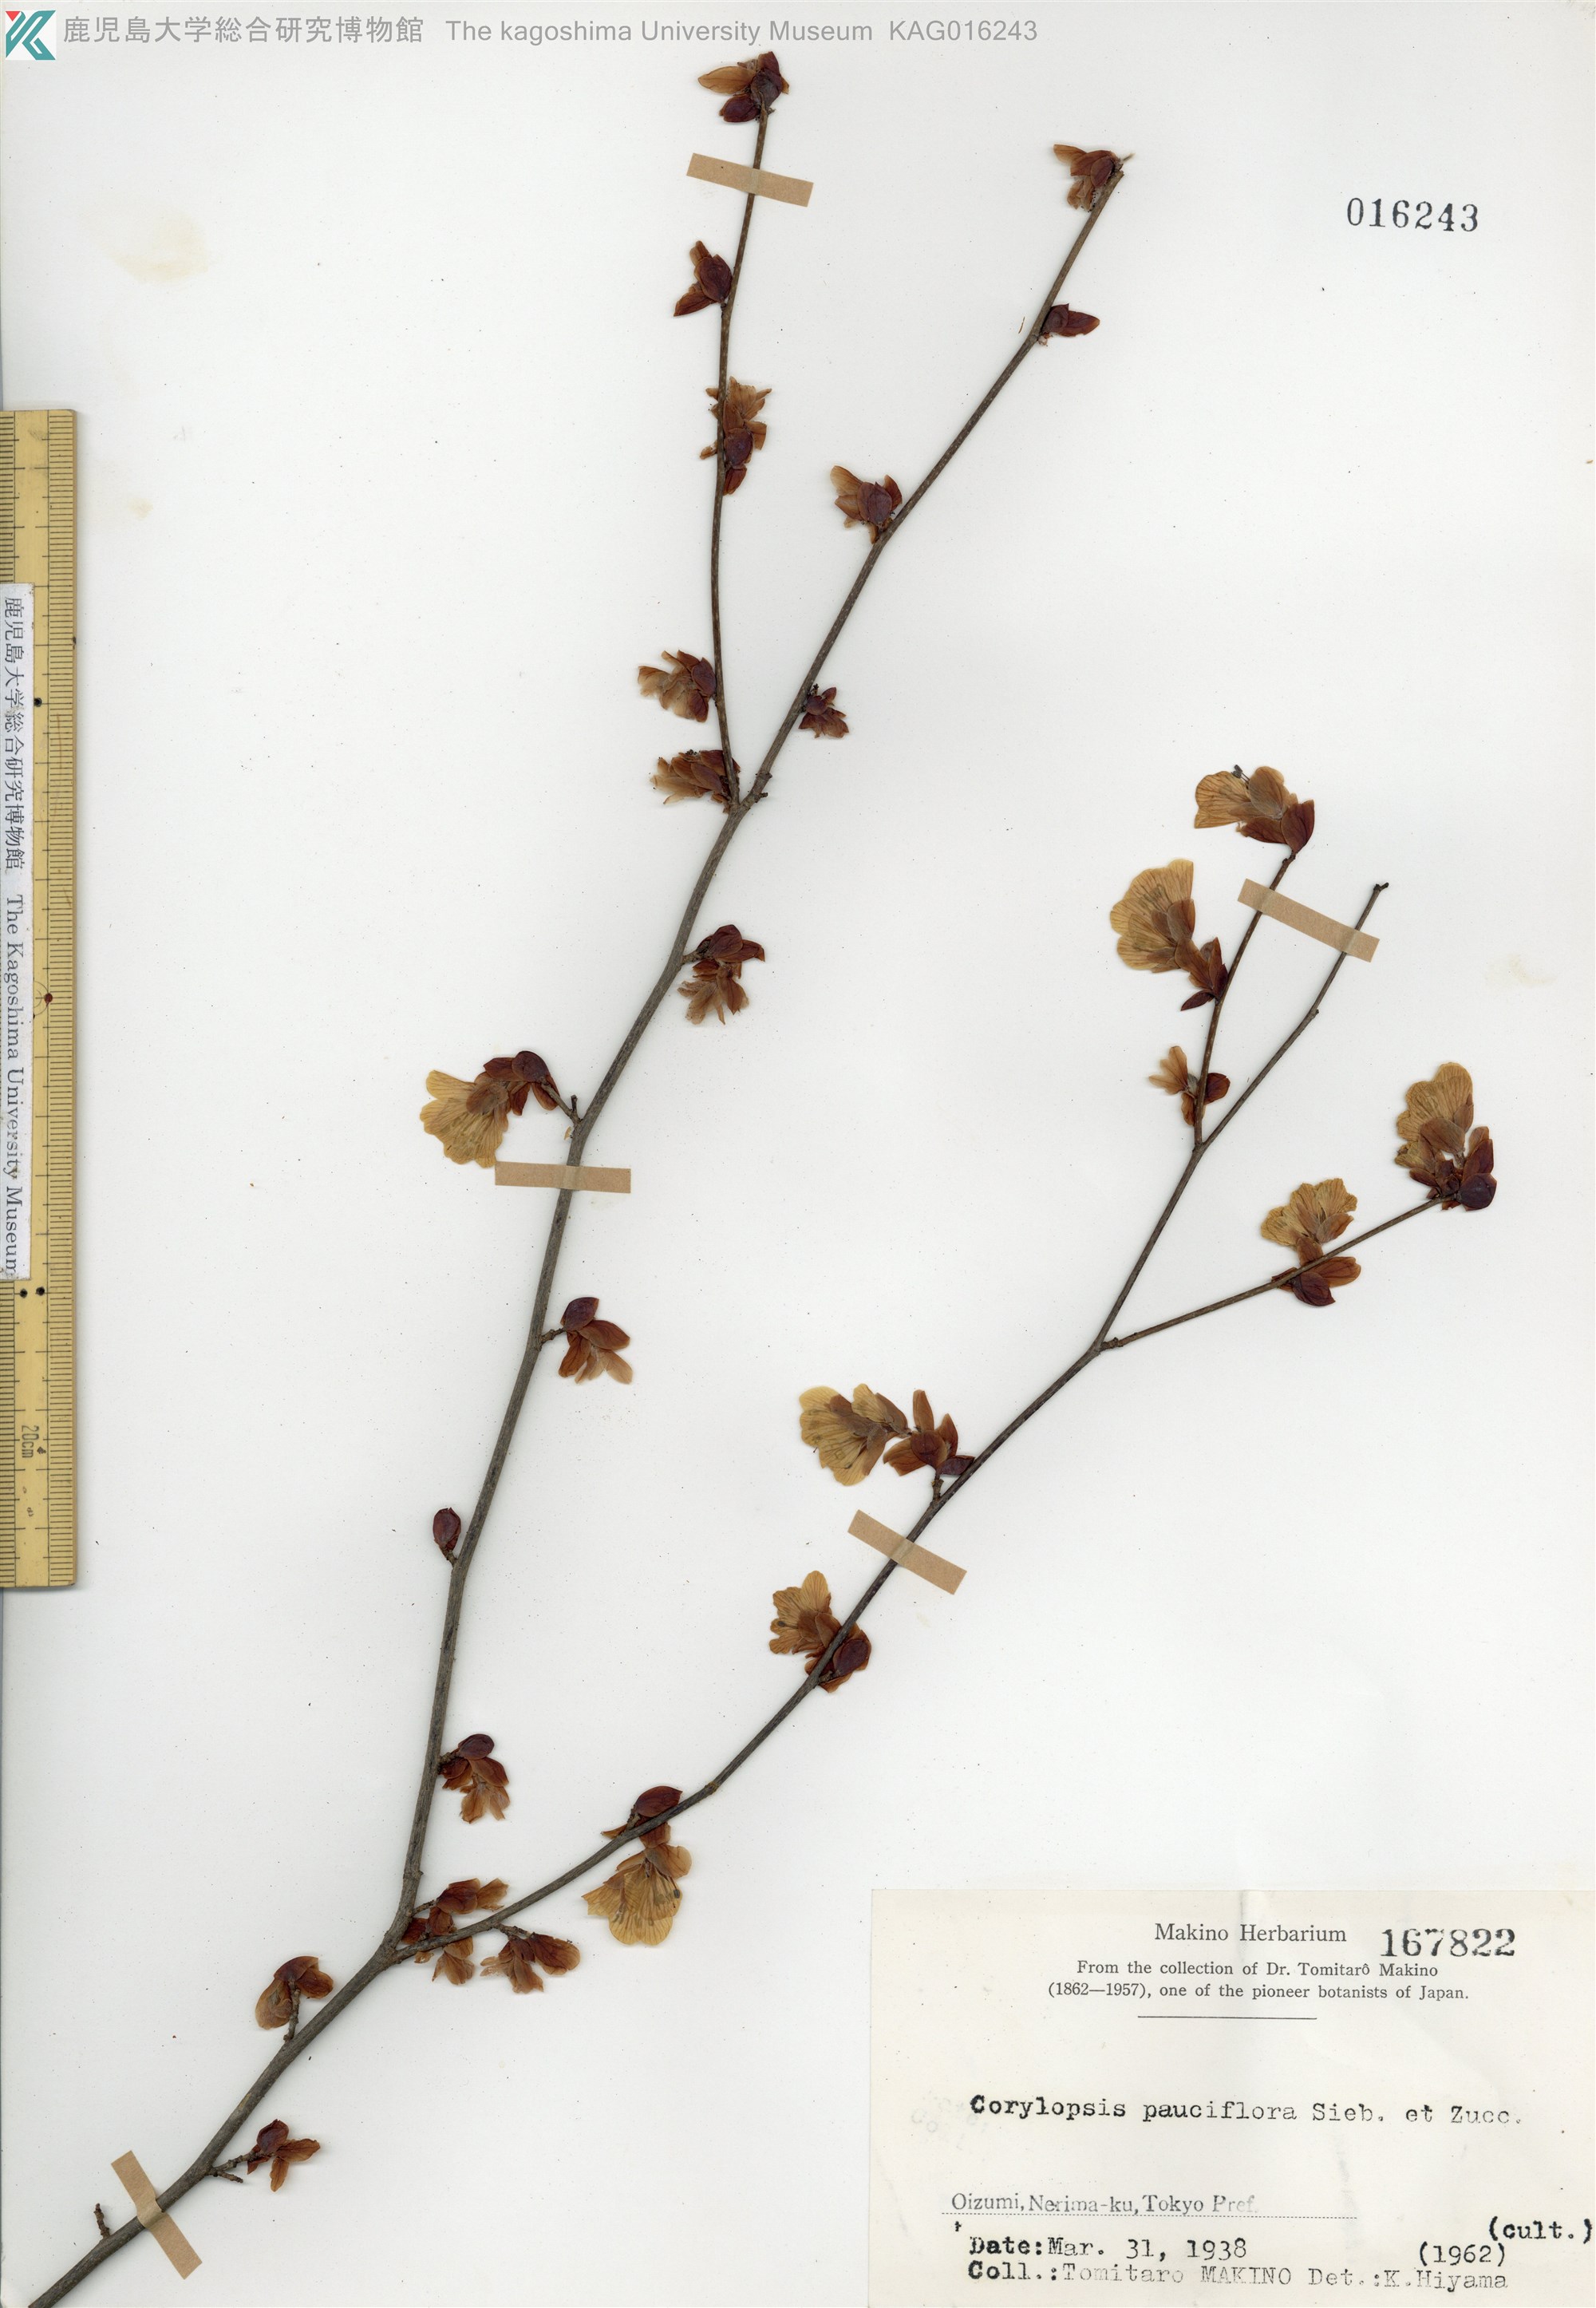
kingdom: Plantae
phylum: Tracheophyta
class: Magnoliopsida
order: Saxifragales
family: Hamamelidaceae
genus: Corylopsis
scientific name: Corylopsis pauciflora
